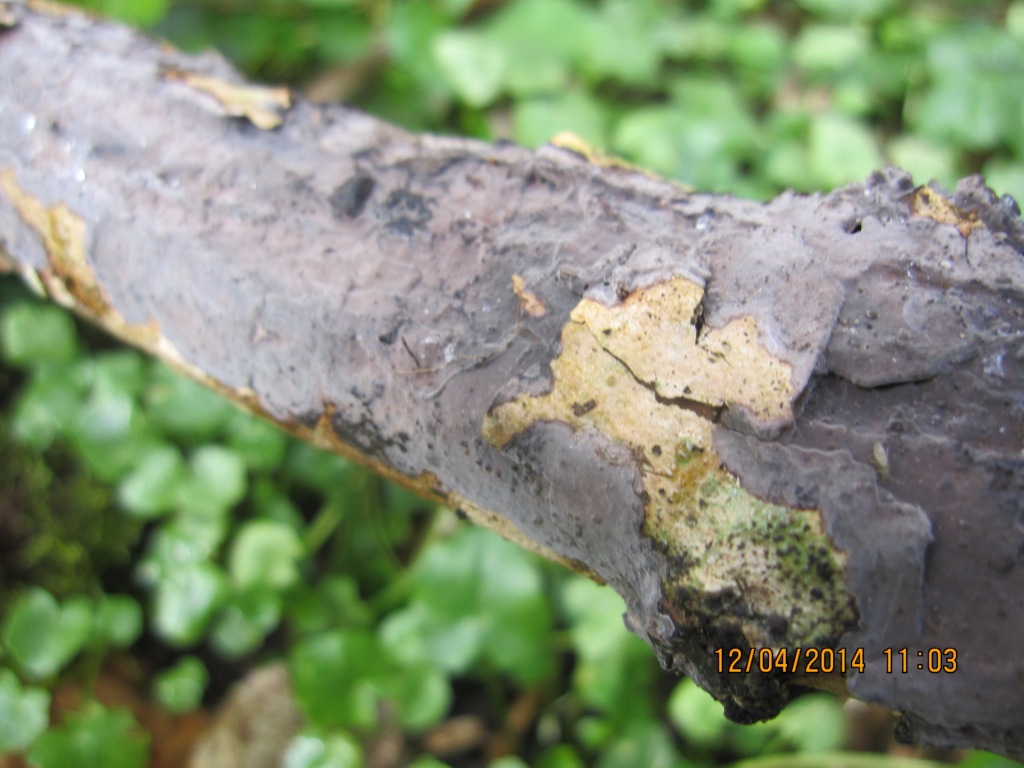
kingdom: Fungi
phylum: Basidiomycota
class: Agaricomycetes
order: Russulales
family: Peniophoraceae
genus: Peniophora
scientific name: Peniophora cinerea
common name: grå voksskind
